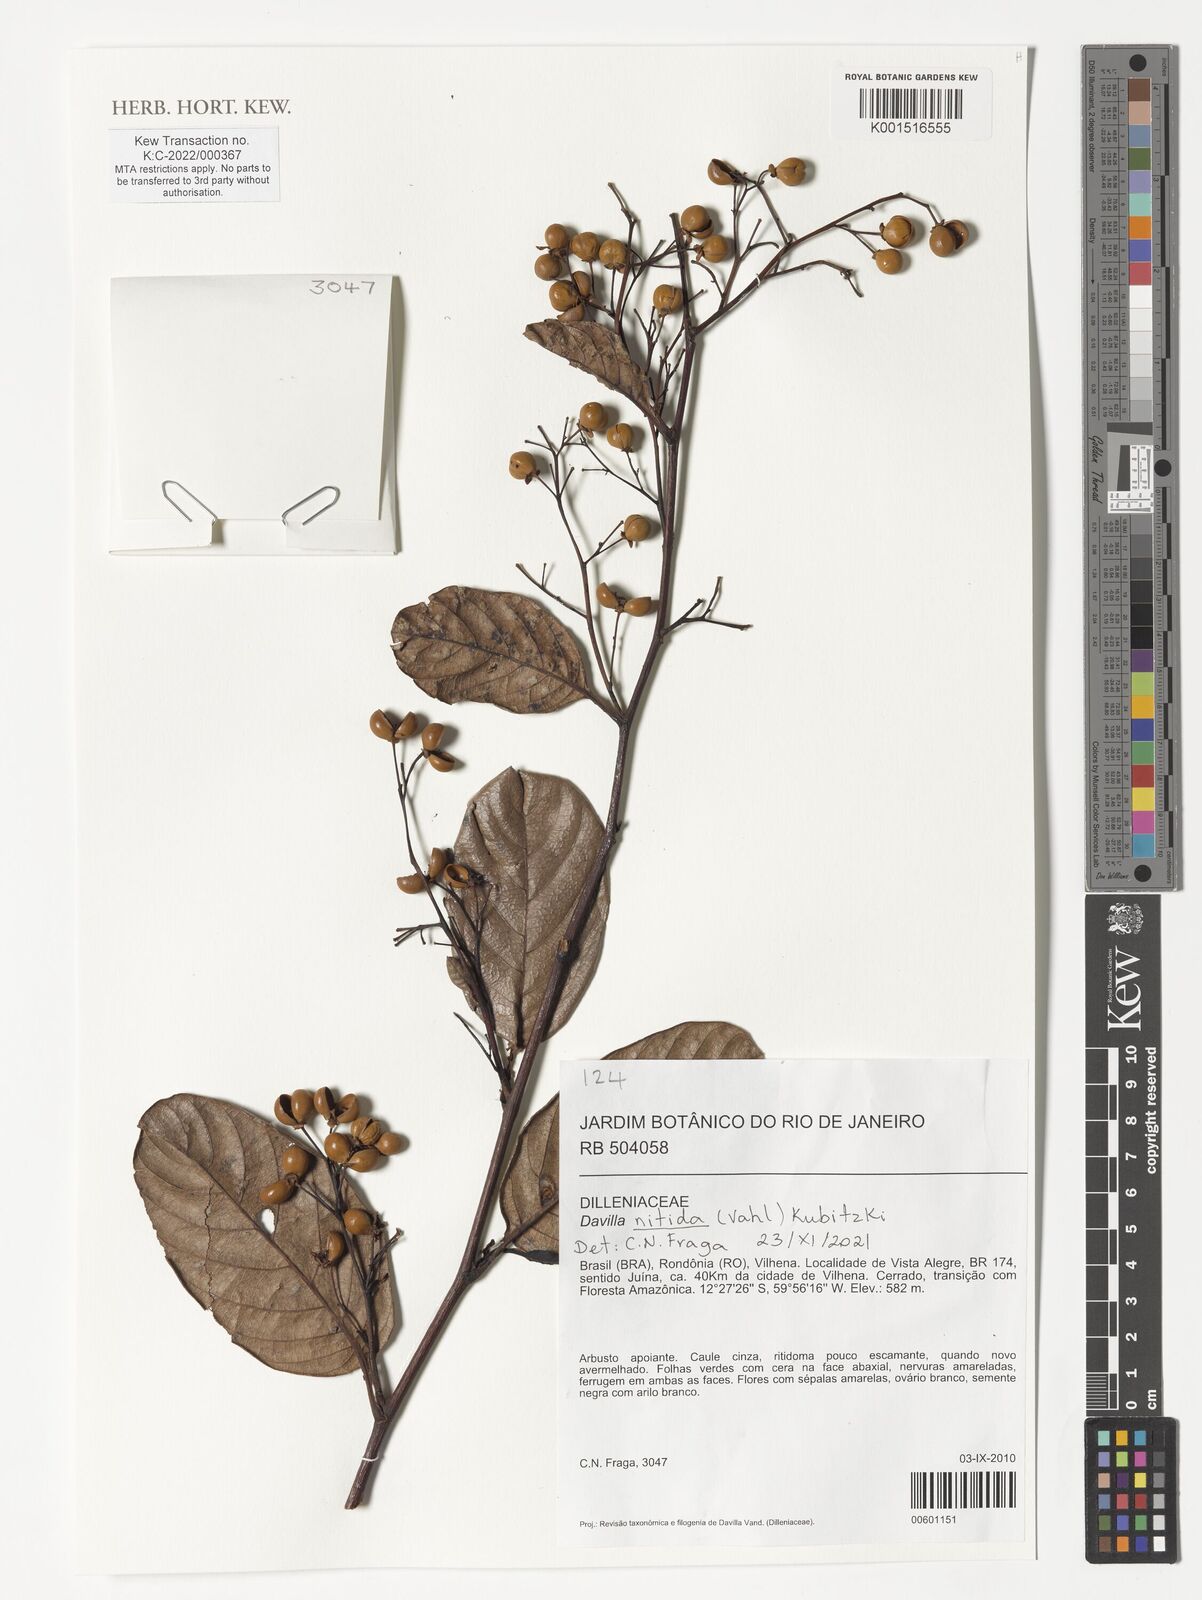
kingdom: Plantae
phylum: Tracheophyta
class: Magnoliopsida
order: Dilleniales
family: Dilleniaceae
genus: Davilla
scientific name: Davilla nitida
